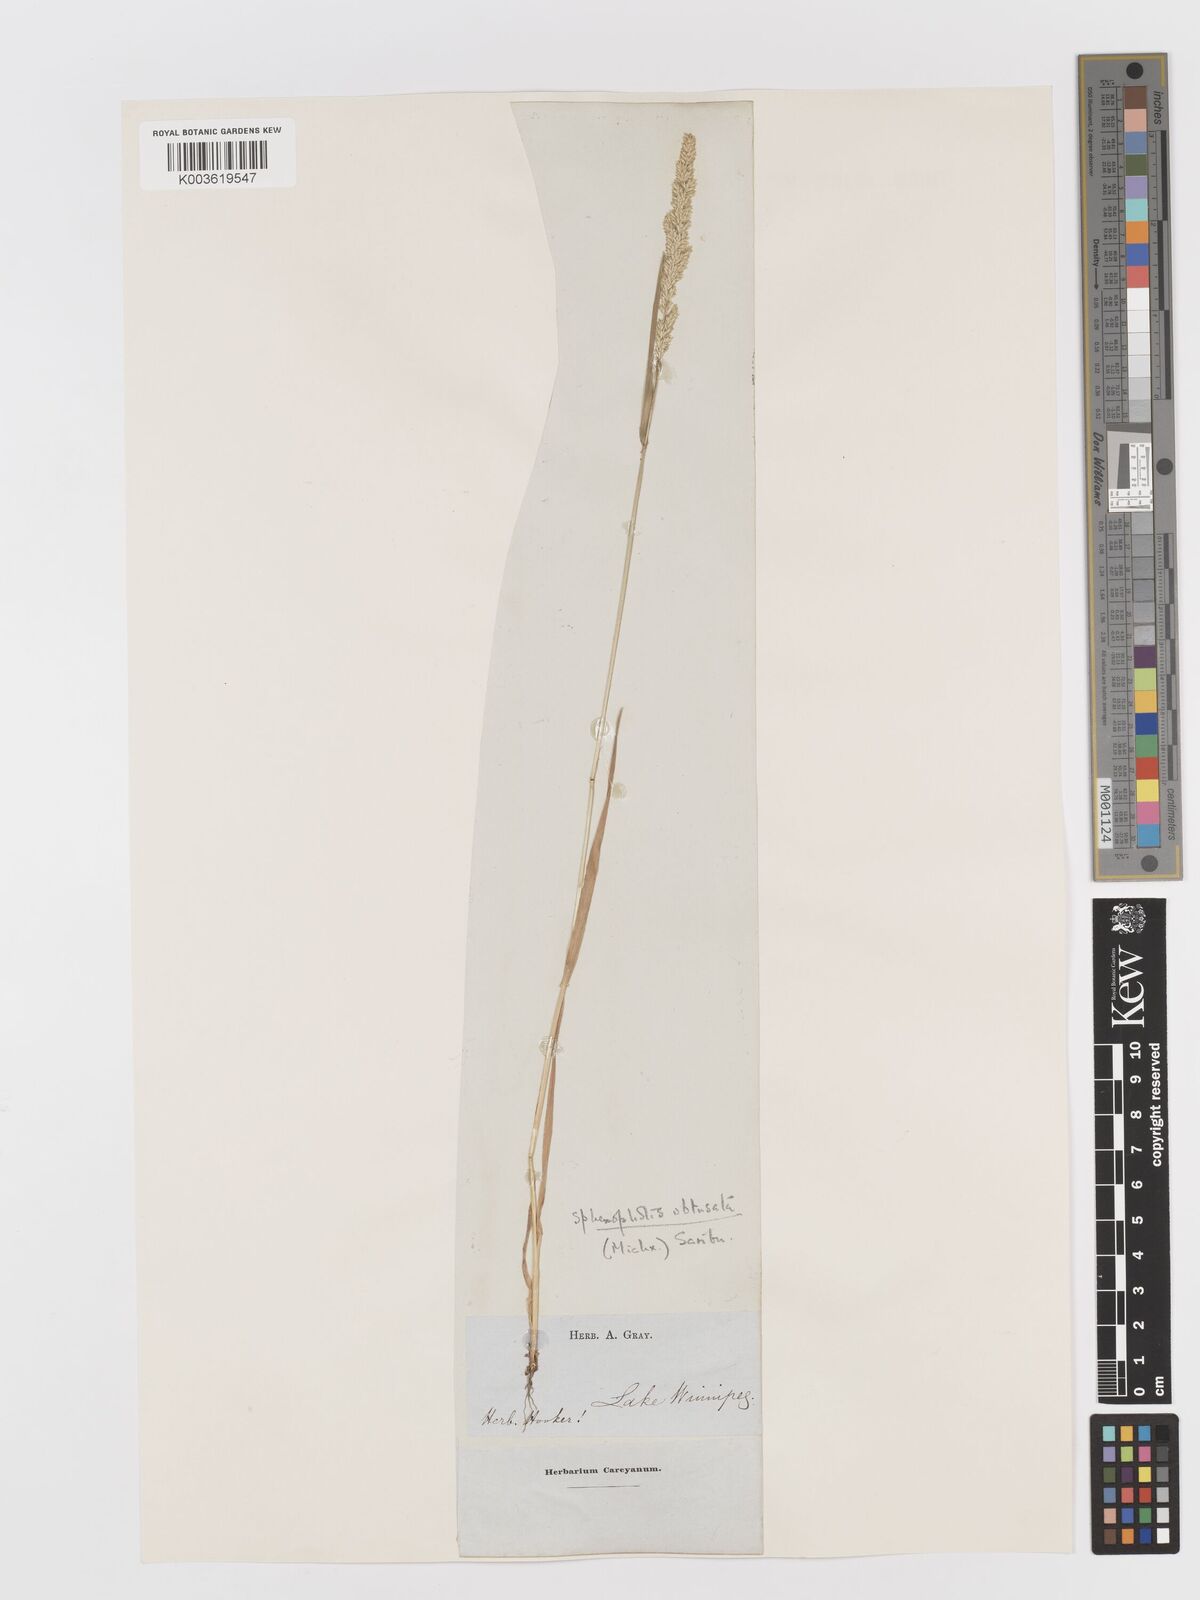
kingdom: Plantae
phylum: Tracheophyta
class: Liliopsida
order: Poales
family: Poaceae
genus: Sphenopholis
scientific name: Sphenopholis obtusata
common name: Prairie grass
